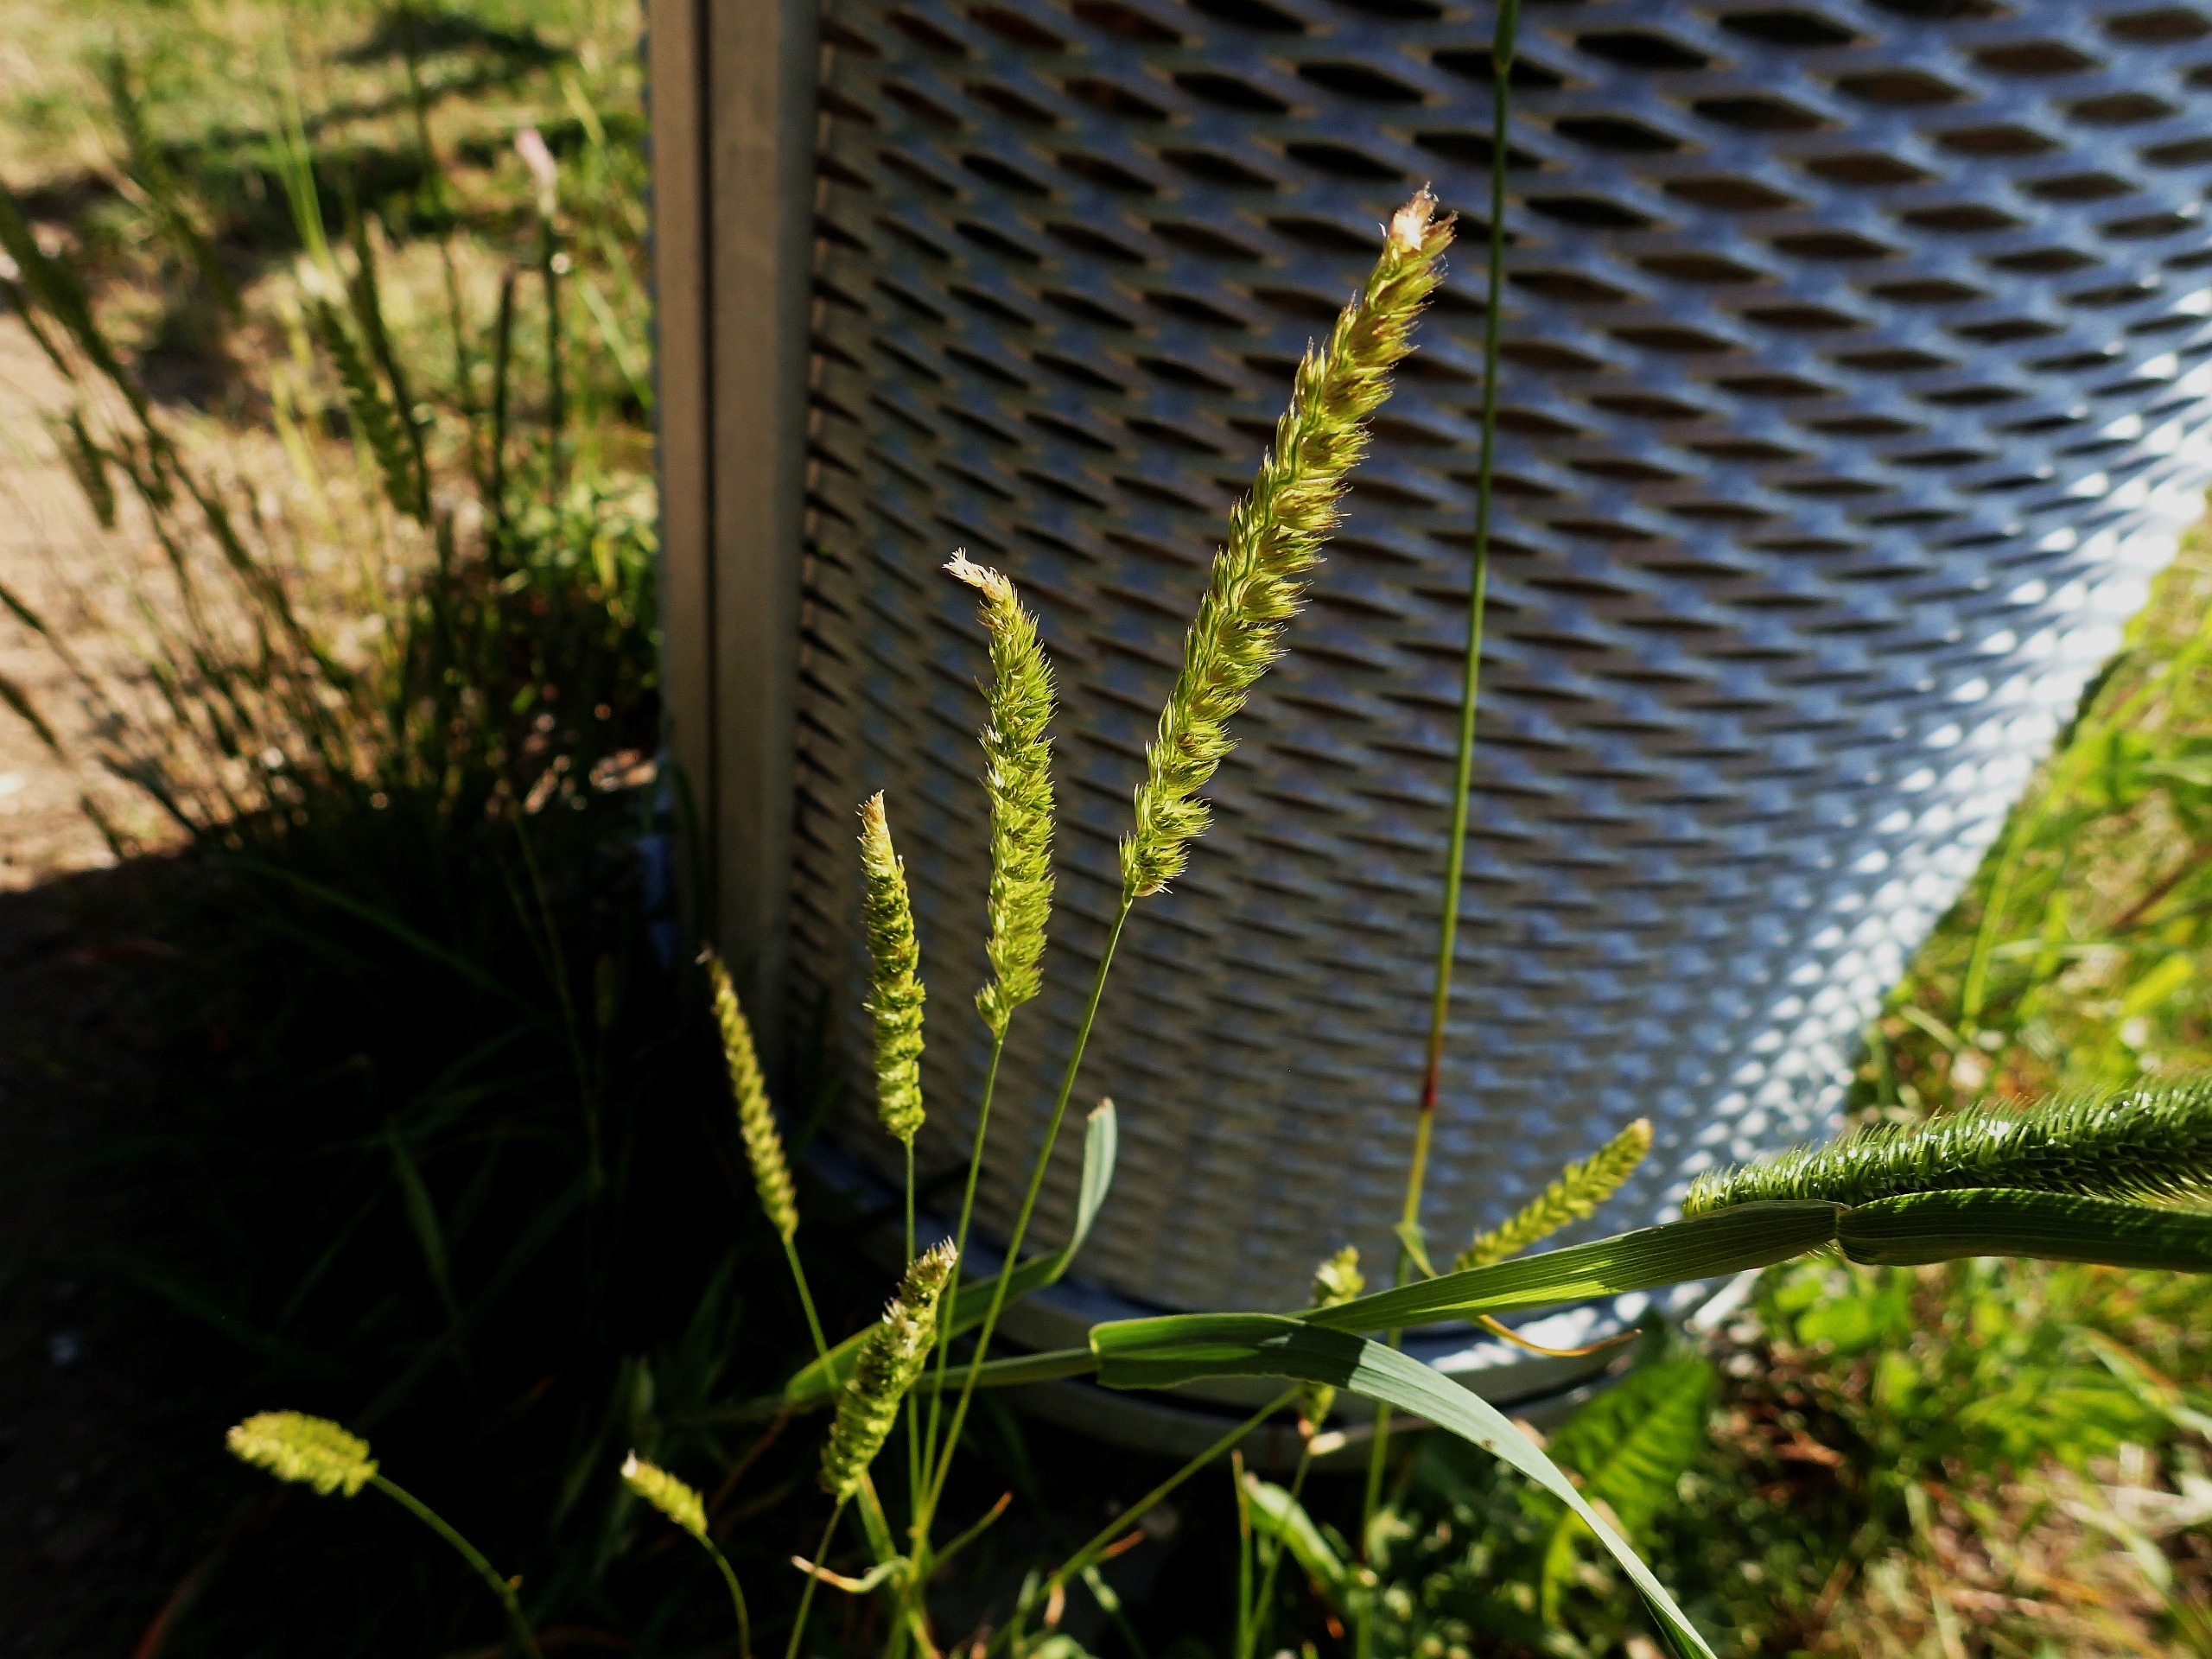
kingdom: Plantae
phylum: Tracheophyta
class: Liliopsida
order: Poales
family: Poaceae
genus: Cynosurus
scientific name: Cynosurus cristatus
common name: Kamgræs
